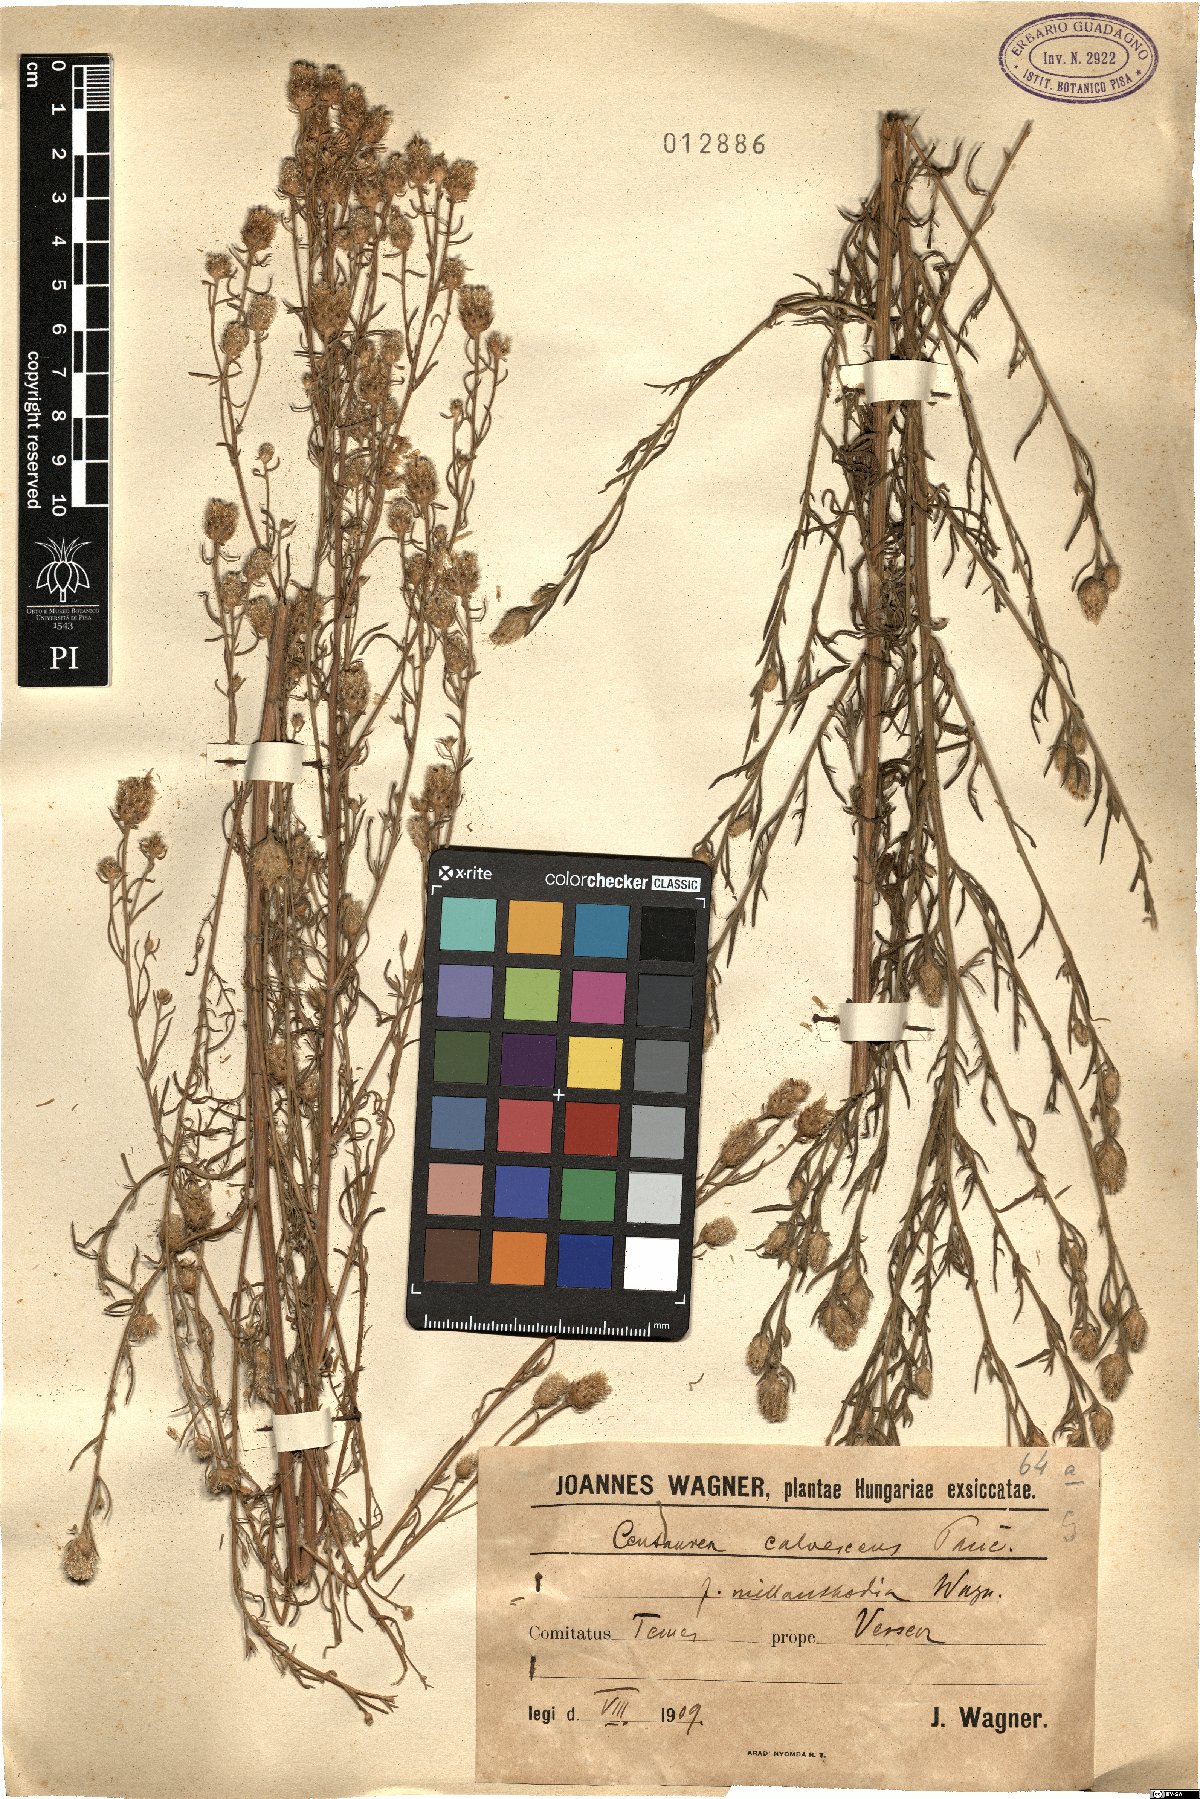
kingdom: Plantae
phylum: Tracheophyta
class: Magnoliopsida
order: Asterales
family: Asteraceae
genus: Centaurea
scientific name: Centaurea reichenbachii
